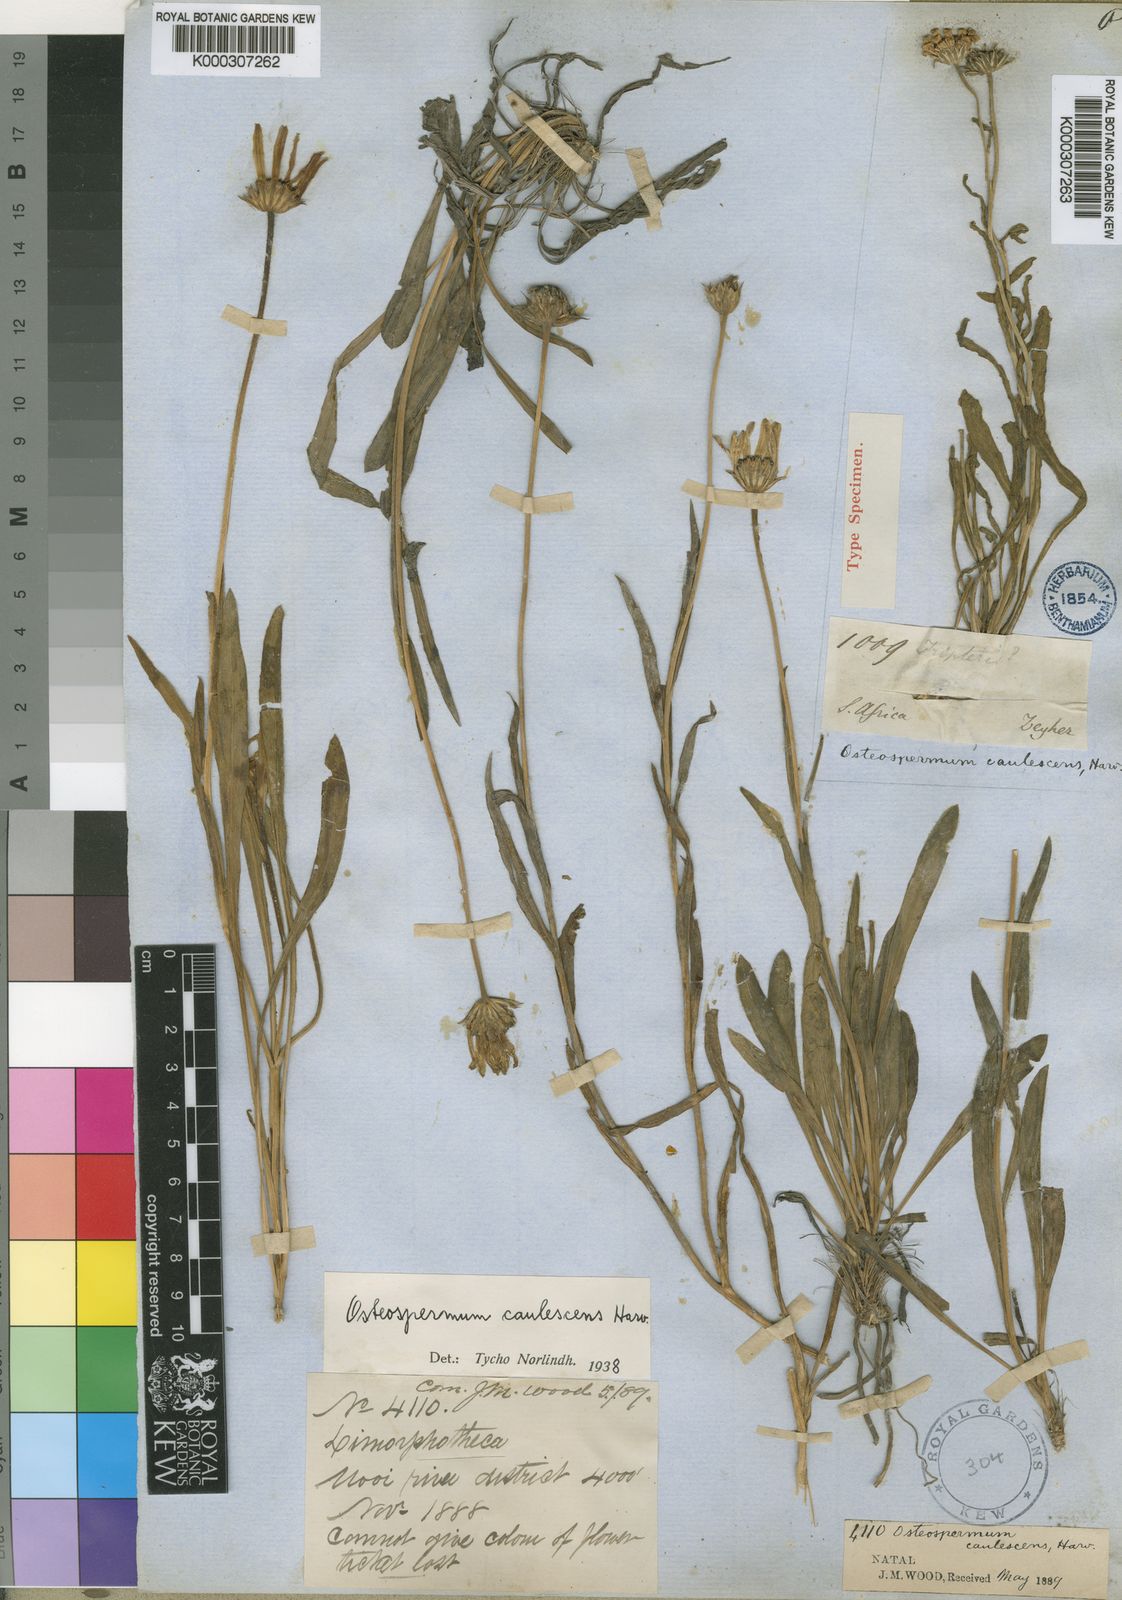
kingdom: Plantae
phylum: Tracheophyta
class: Magnoliopsida
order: Asterales
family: Asteraceae
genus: Dimorphotheca
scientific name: Dimorphotheca caulescens
